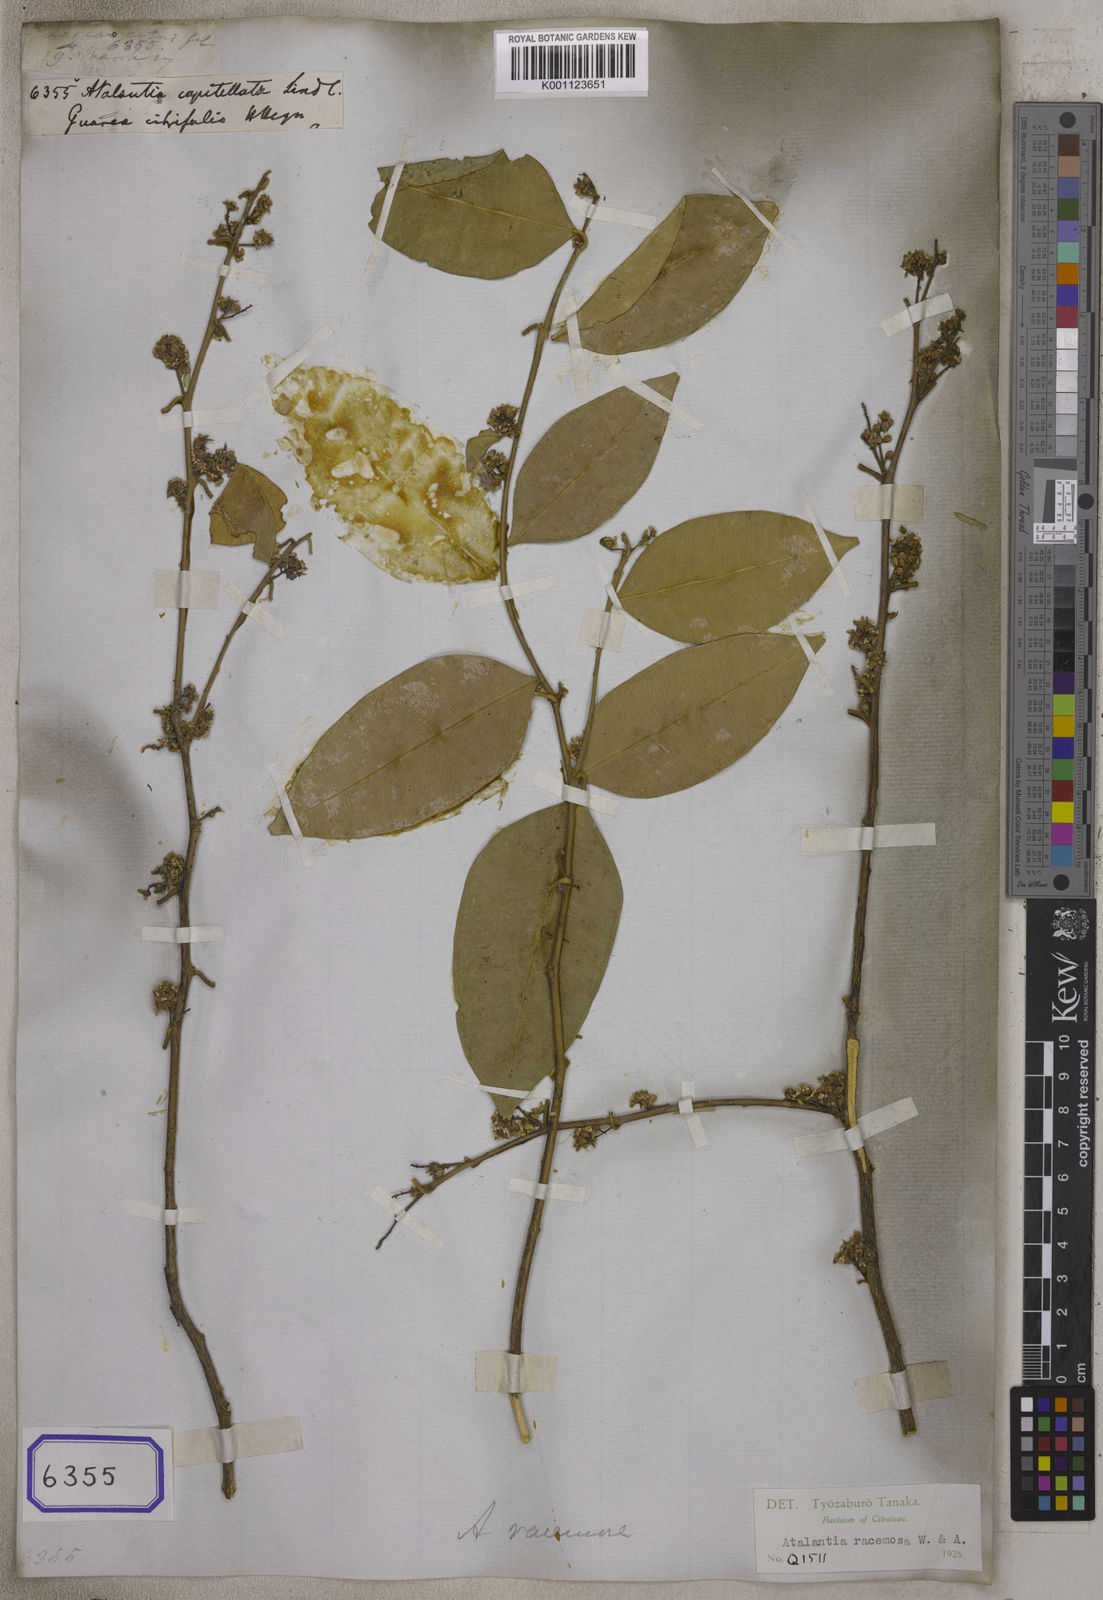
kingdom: Plantae
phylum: Tracheophyta
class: Magnoliopsida
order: Sapindales
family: Rutaceae
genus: Atalantia
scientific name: Atalantia racemosa
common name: Bombay atalantia
